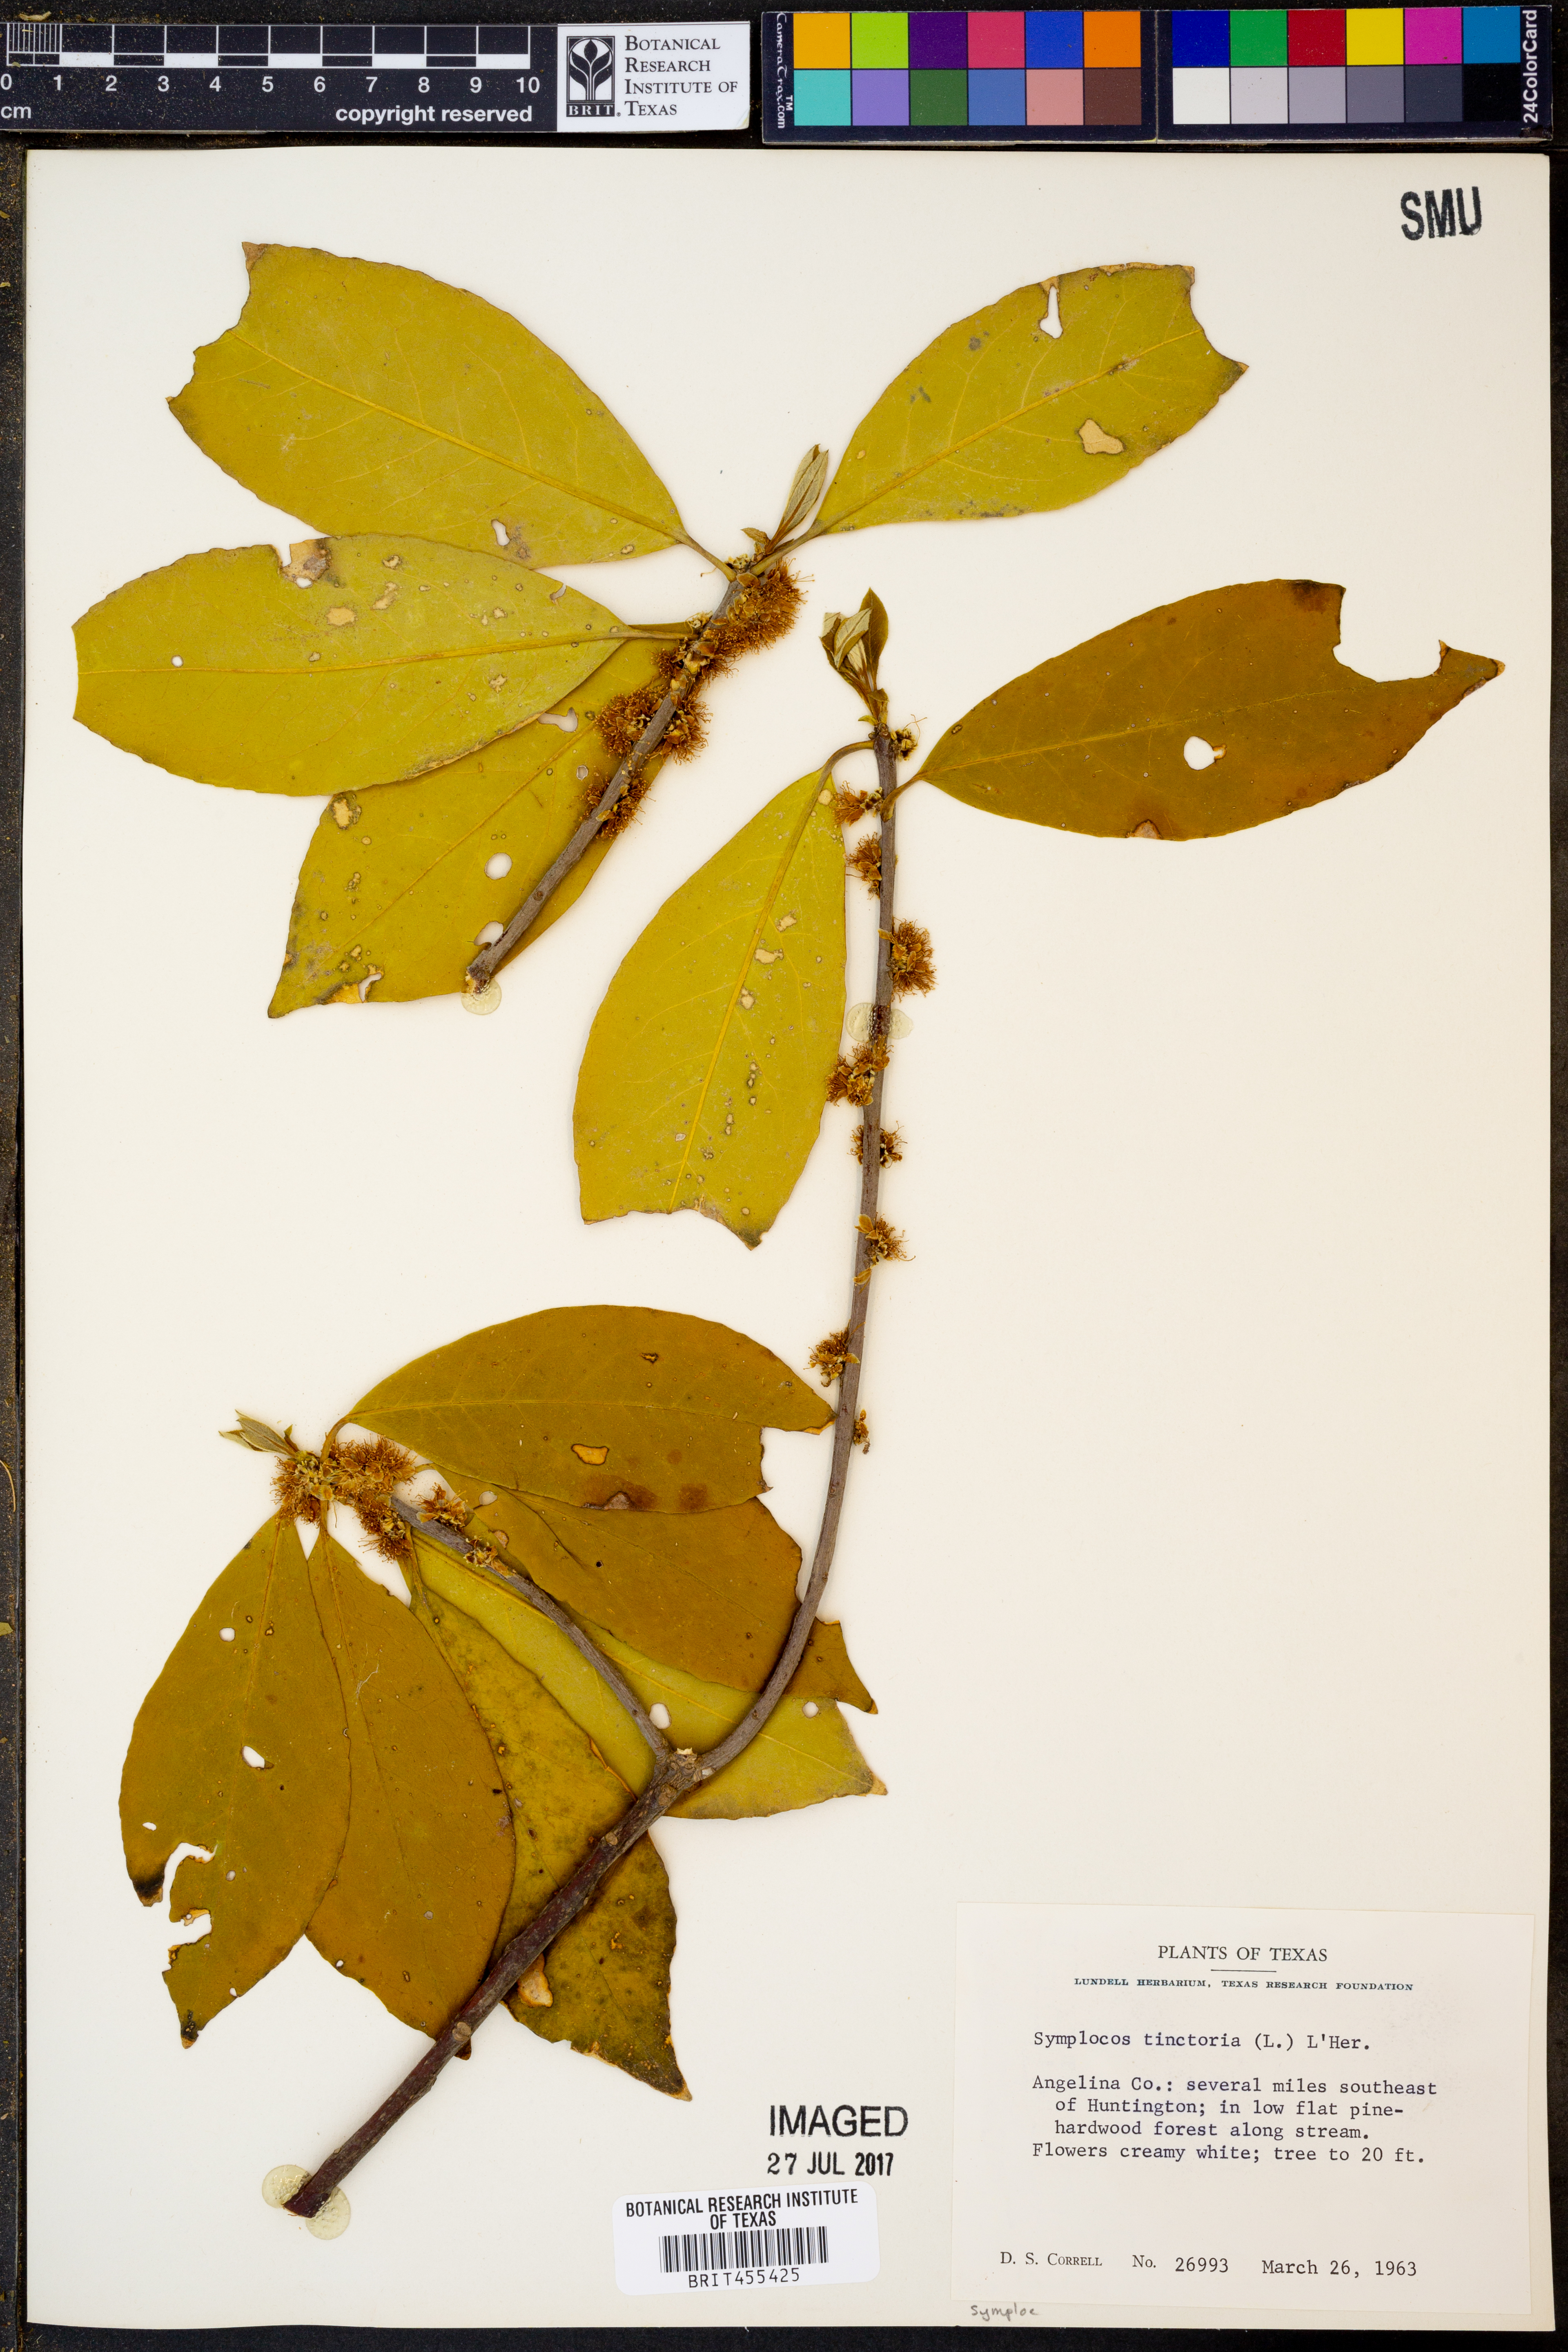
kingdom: Plantae
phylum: Tracheophyta
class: Magnoliopsida
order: Ericales
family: Symplocaceae
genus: Symplocos
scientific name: Symplocos tinctoria
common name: Horse-sugar
